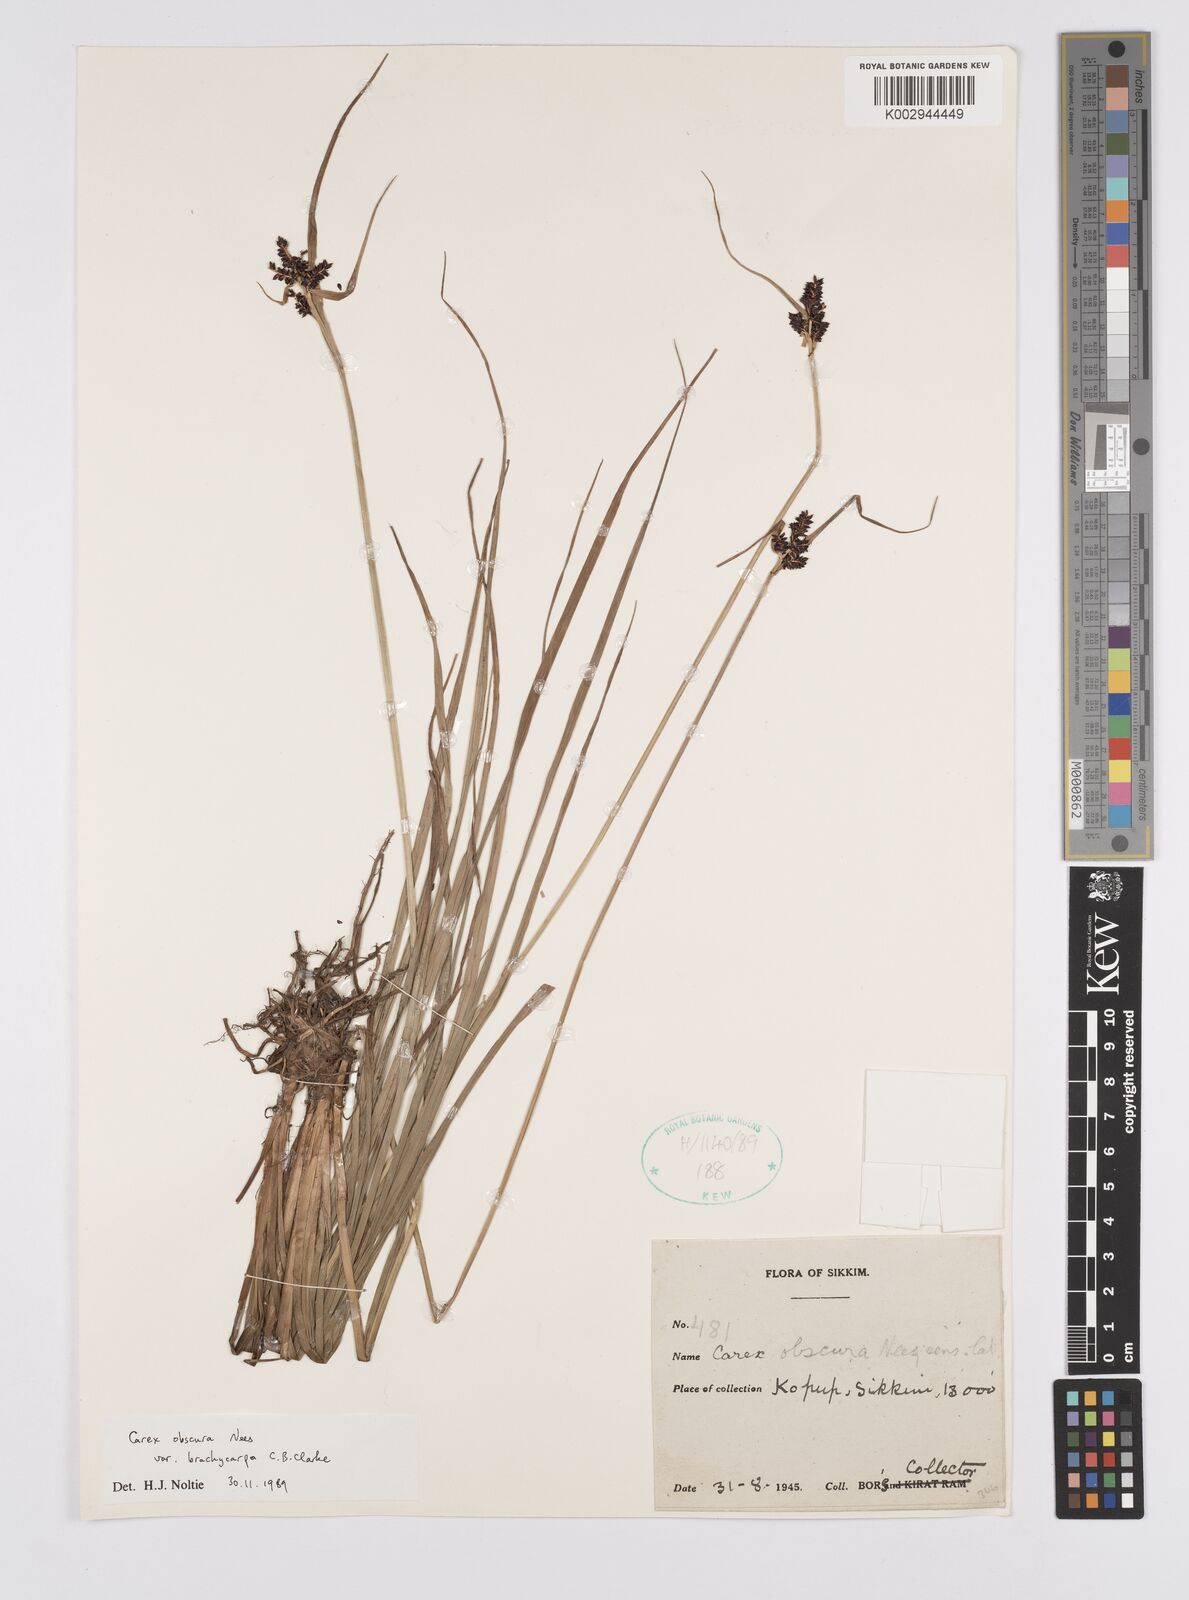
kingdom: Plantae
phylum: Tracheophyta
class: Liliopsida
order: Poales
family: Cyperaceae
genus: Carex
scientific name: Carex obscura
